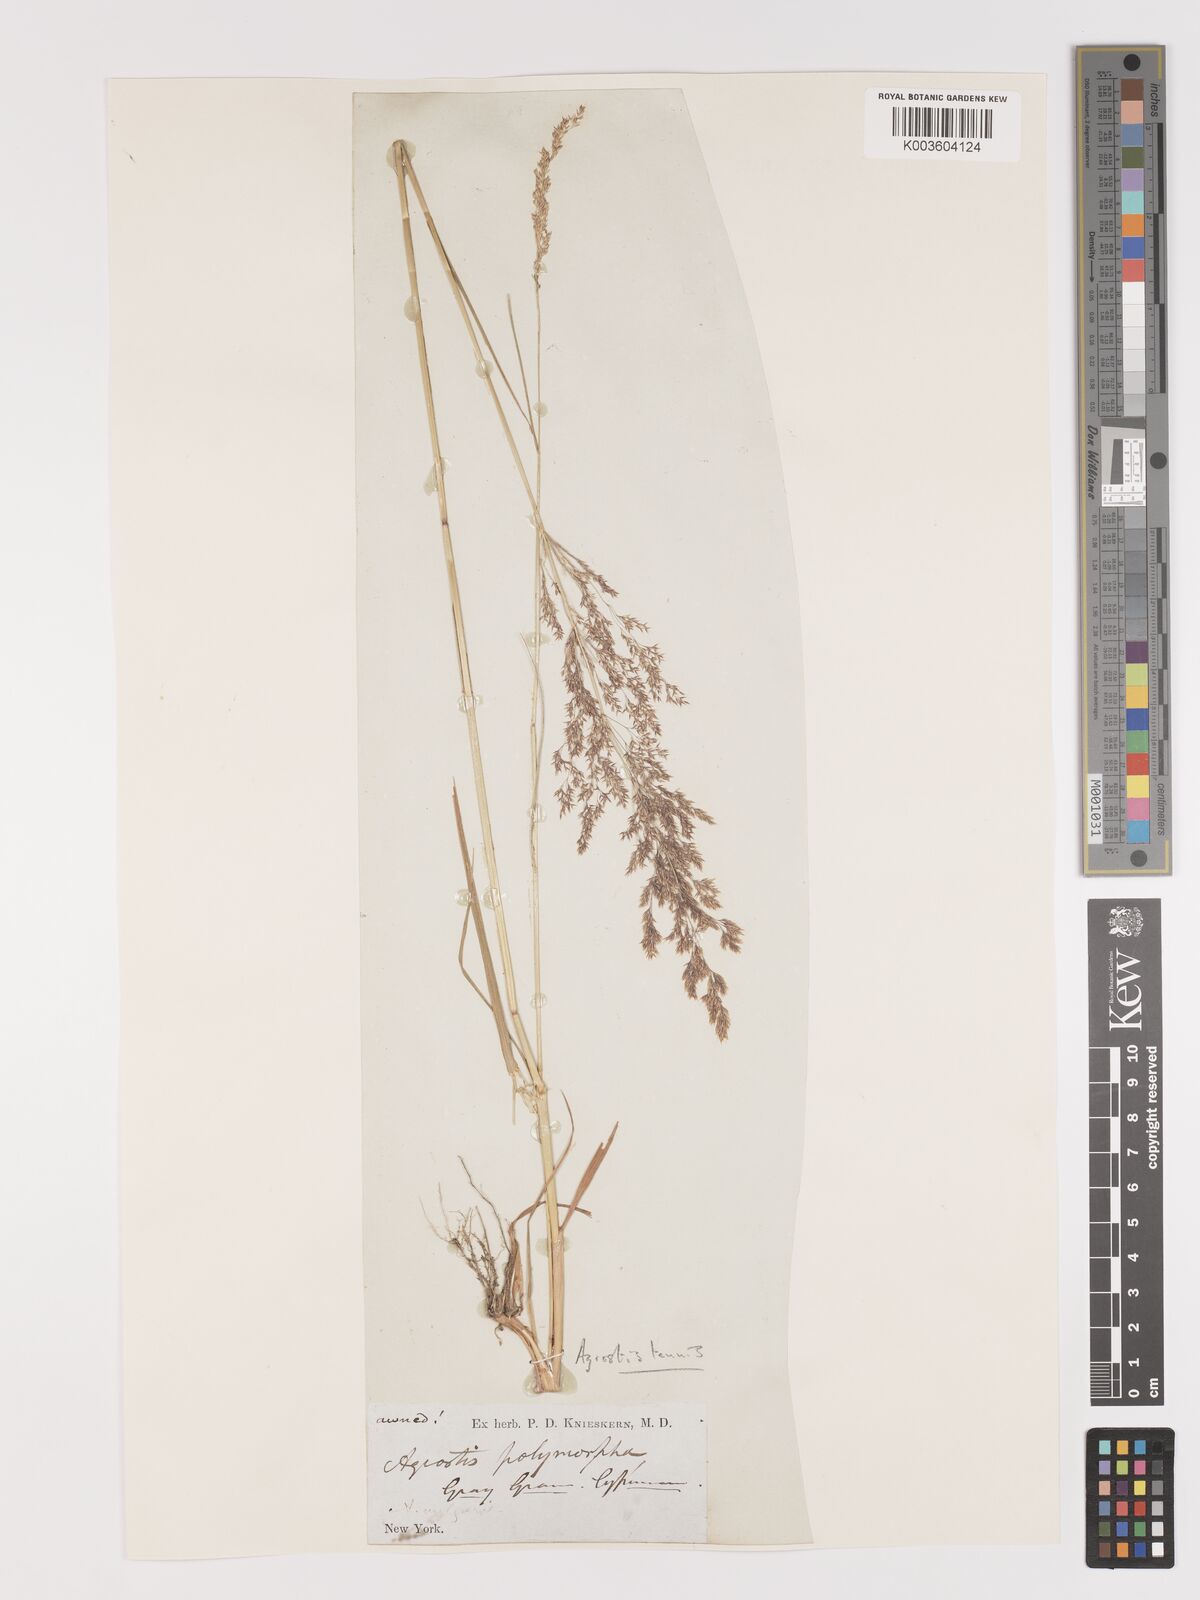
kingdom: Plantae
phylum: Tracheophyta
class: Liliopsida
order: Poales
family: Poaceae
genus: Agrostis
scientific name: Agrostis capillaris
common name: Colonial bentgrass
